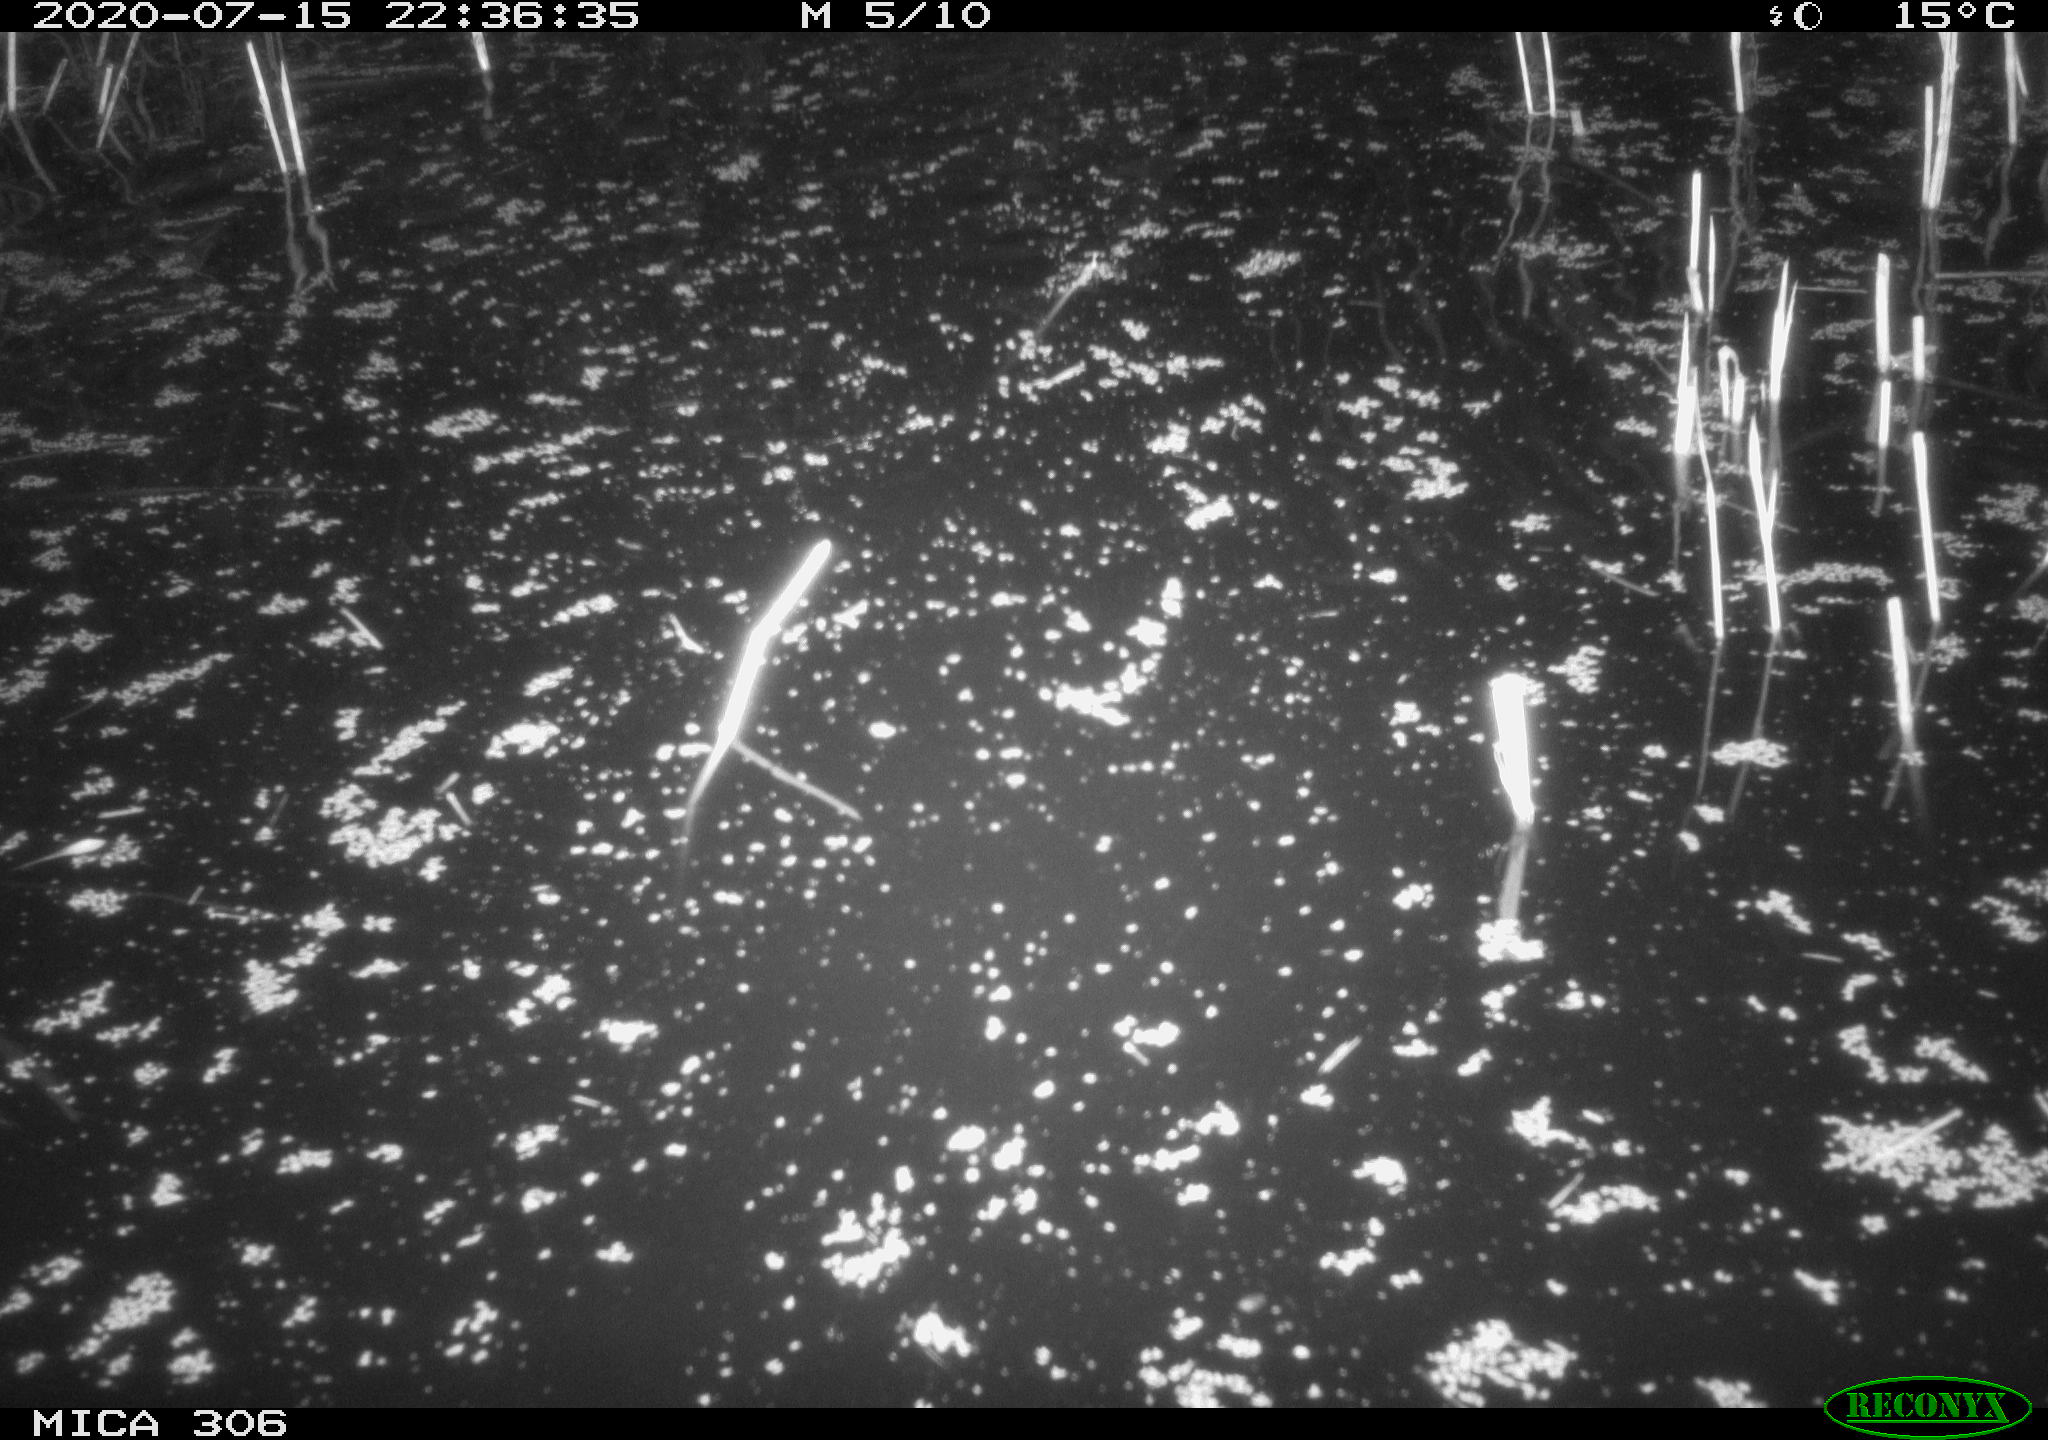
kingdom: Animalia
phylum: Chordata
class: Mammalia
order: Rodentia
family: Cricetidae
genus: Ondatra
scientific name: Ondatra zibethicus
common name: Muskrat
